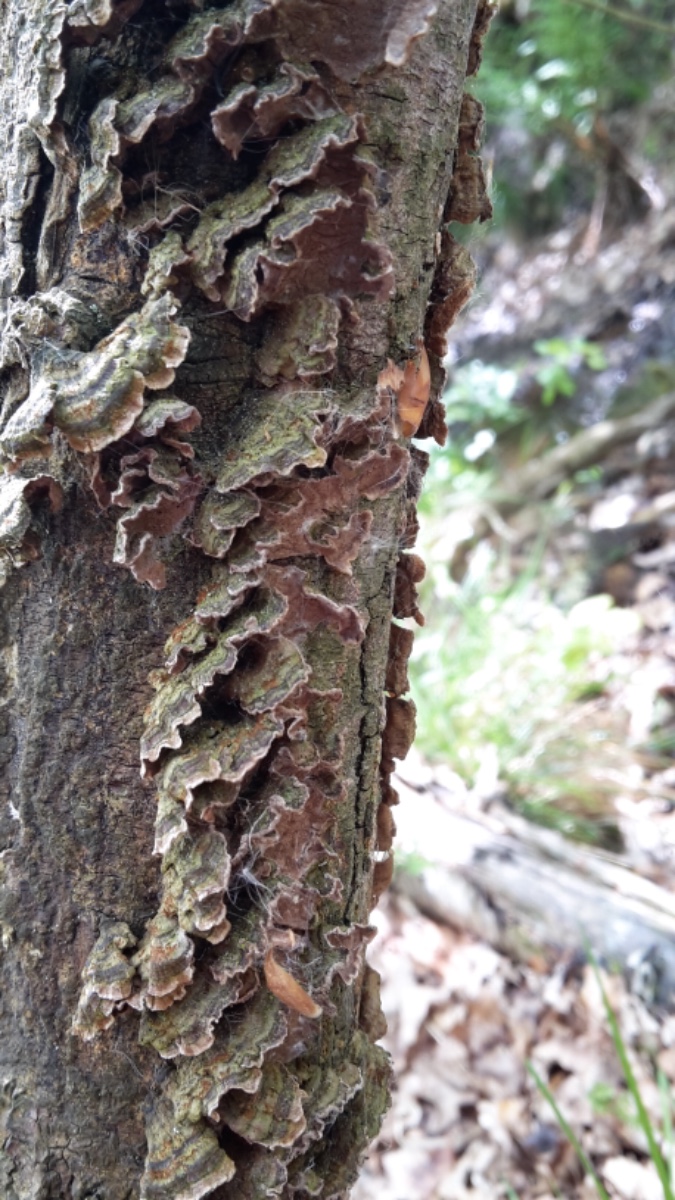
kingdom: Fungi
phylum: Basidiomycota
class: Agaricomycetes
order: Hymenochaetales
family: Hymenochaetaceae
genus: Hydnoporia
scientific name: Hydnoporia tabacina
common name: tobaksbrun ruslædersvamp
